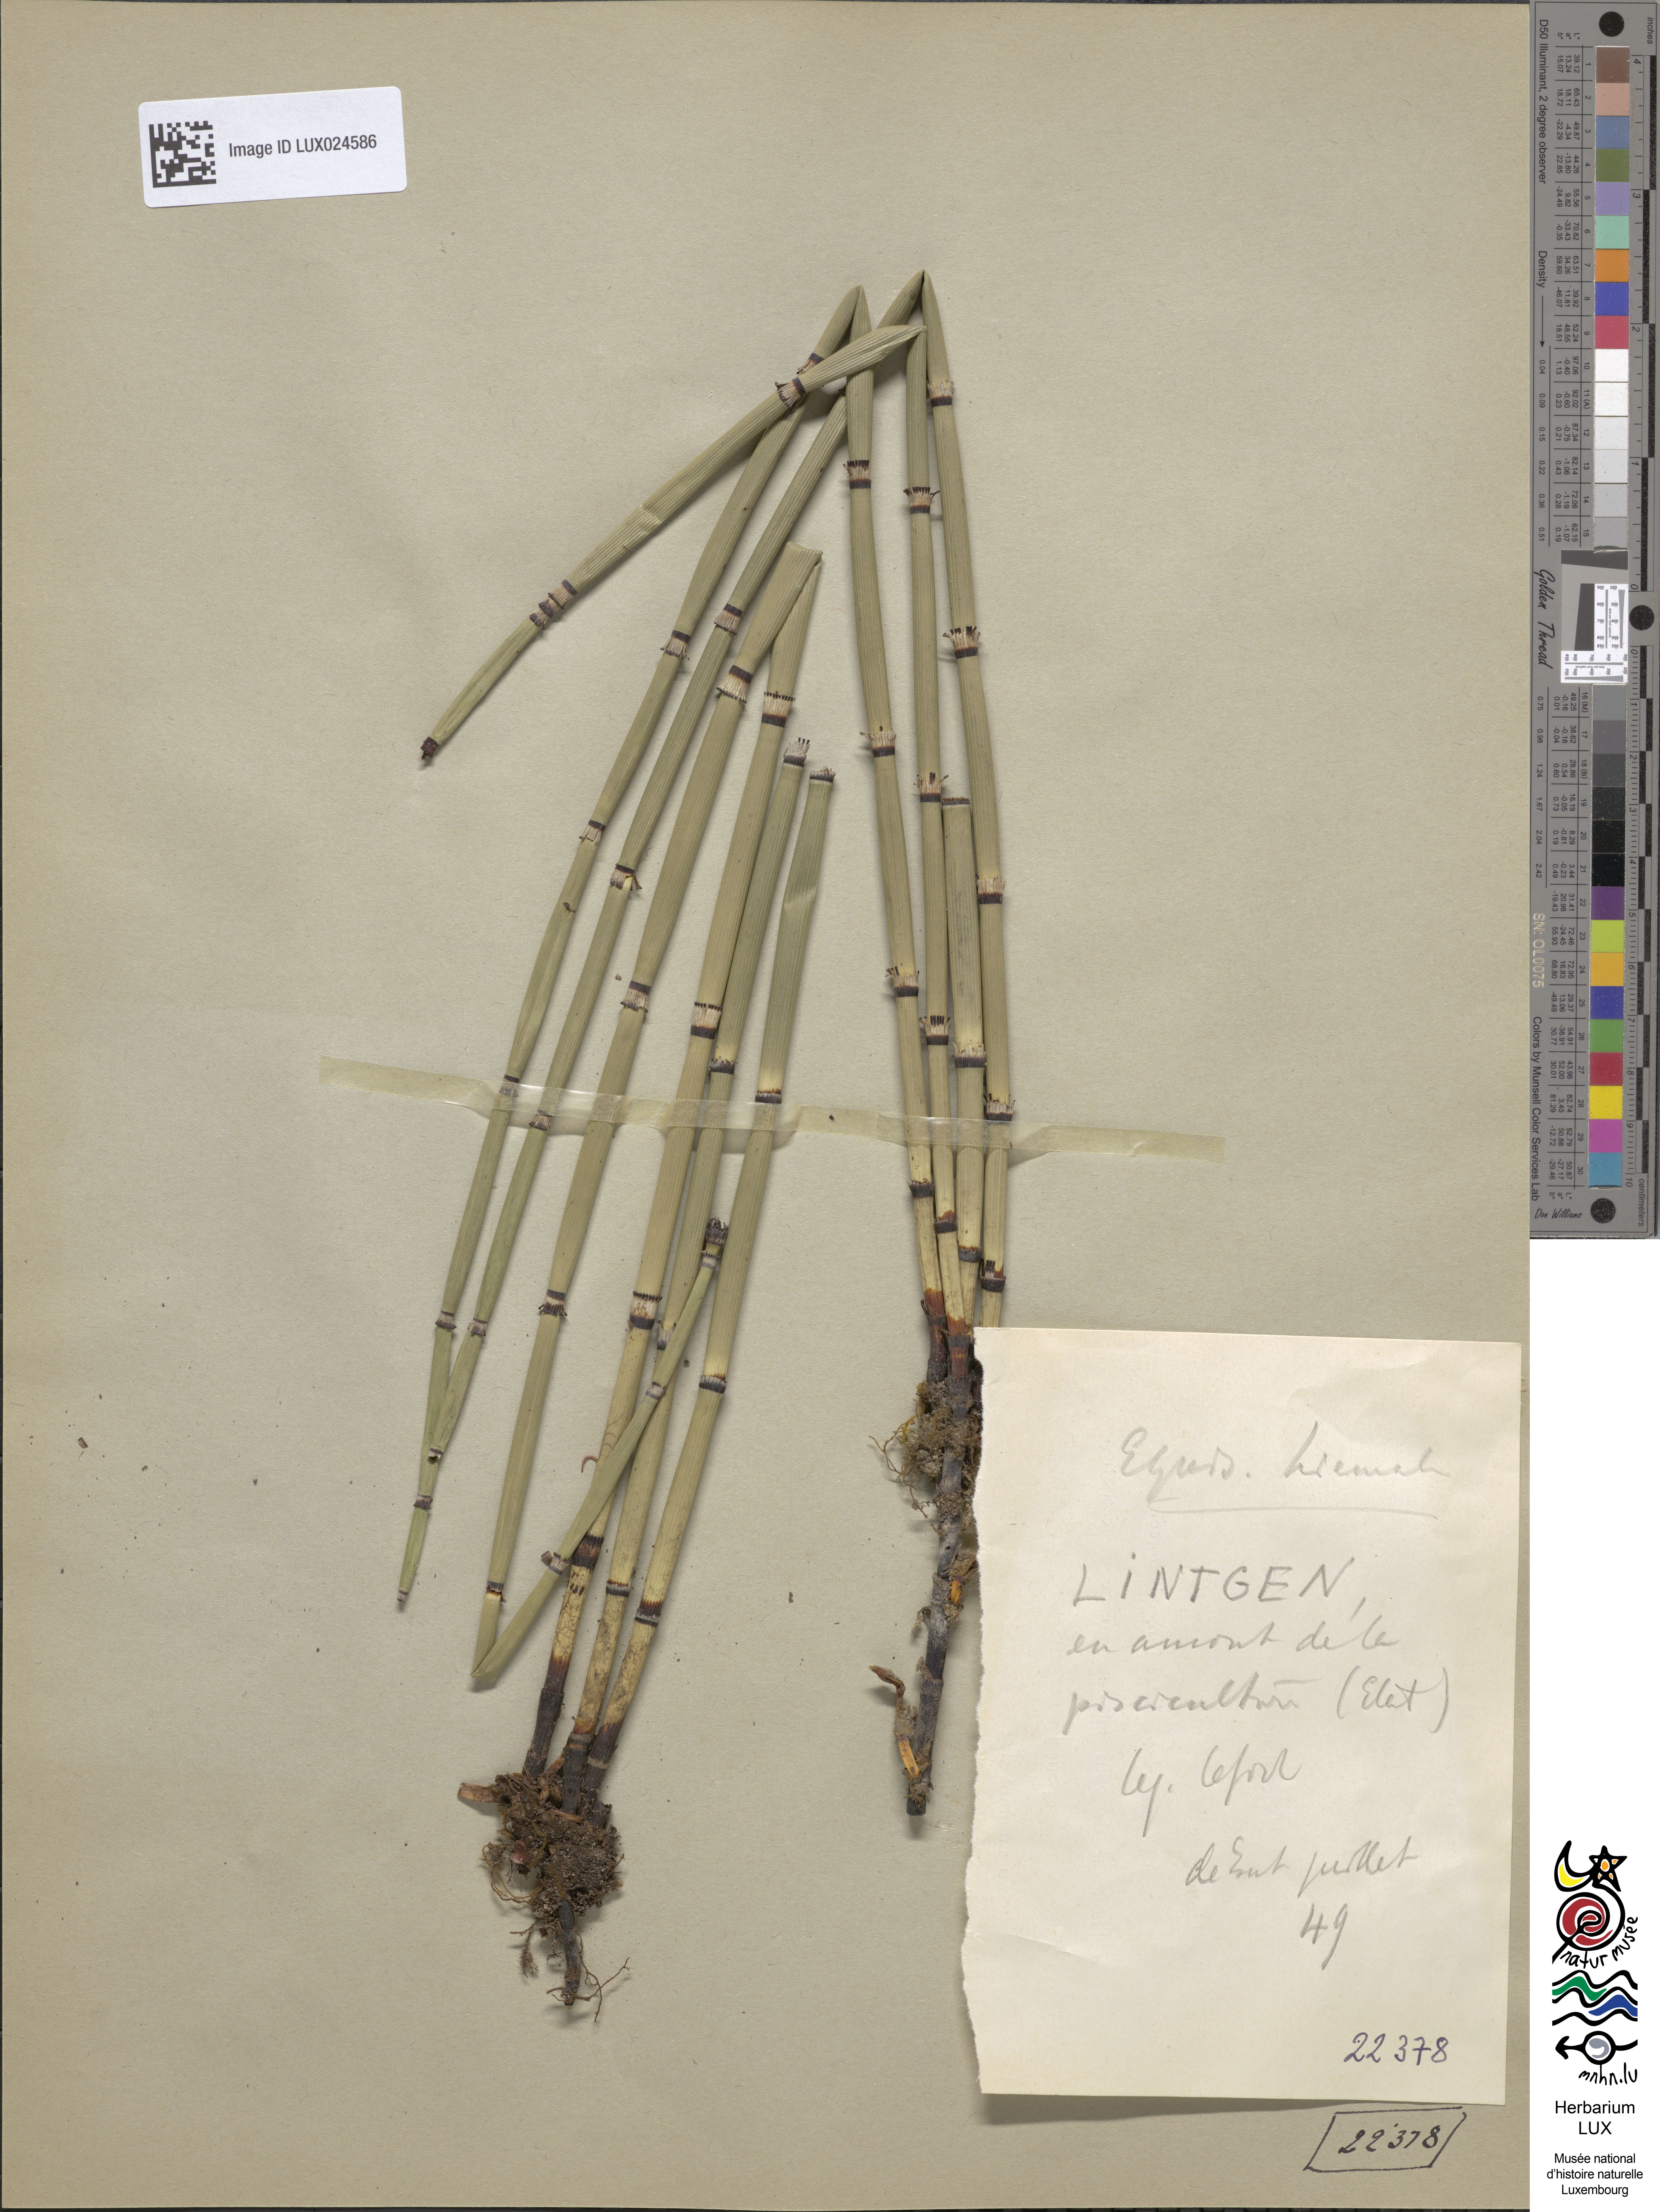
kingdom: Plantae
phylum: Tracheophyta
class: Polypodiopsida
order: Equisetales
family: Equisetaceae
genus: Equisetum
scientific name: Equisetum hyemale
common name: Rough horsetail
